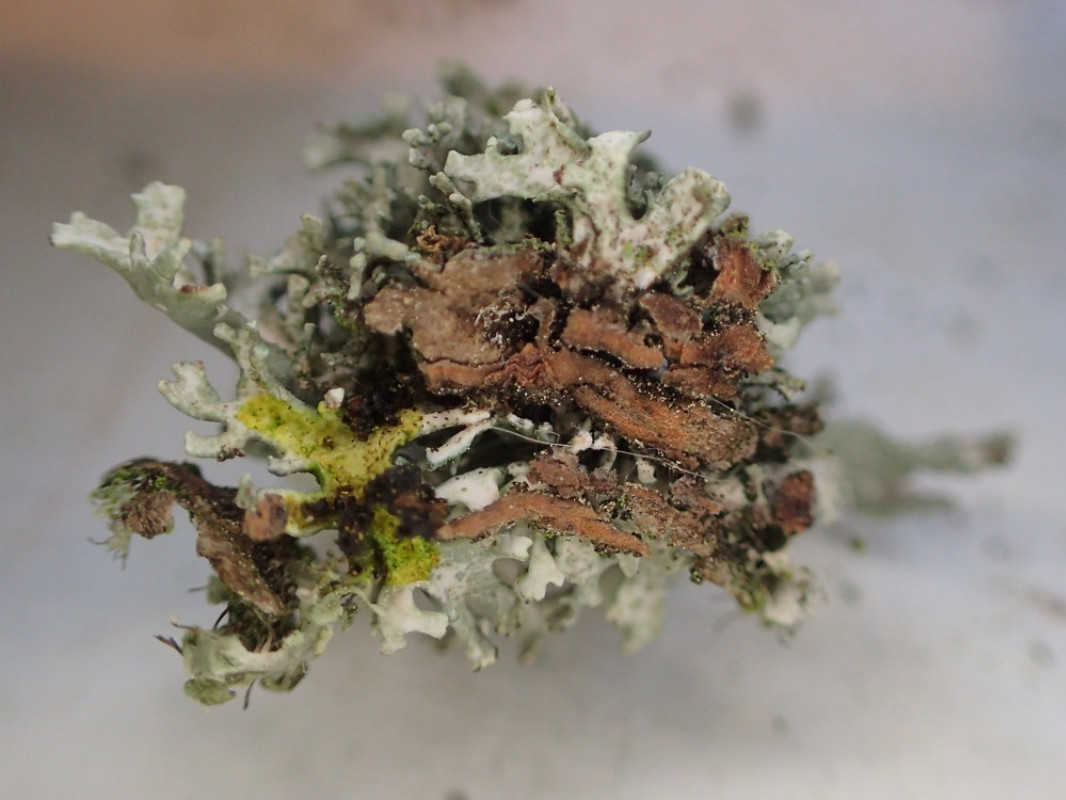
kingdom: Fungi
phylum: Ascomycota
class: Lecanoromycetes
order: Lecanorales
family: Parmeliaceae
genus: Evernia
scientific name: Evernia prunastri
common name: almindelig slåenlav
